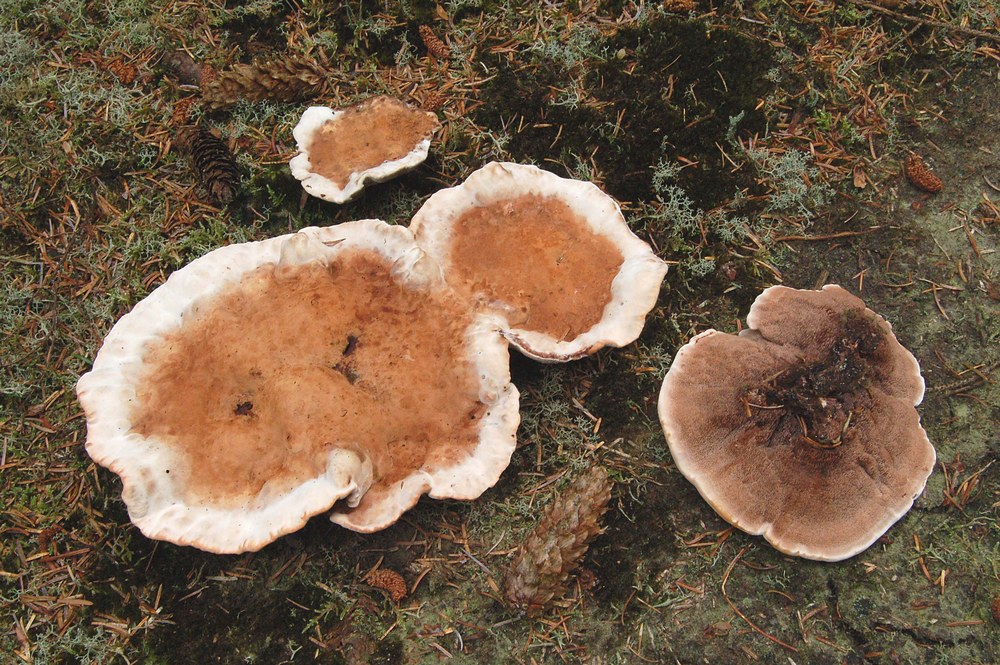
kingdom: Fungi
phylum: Basidiomycota
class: Agaricomycetes
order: Thelephorales
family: Bankeraceae
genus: Hydnellum
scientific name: Hydnellum peckii
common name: bitter korkpigsvamp
